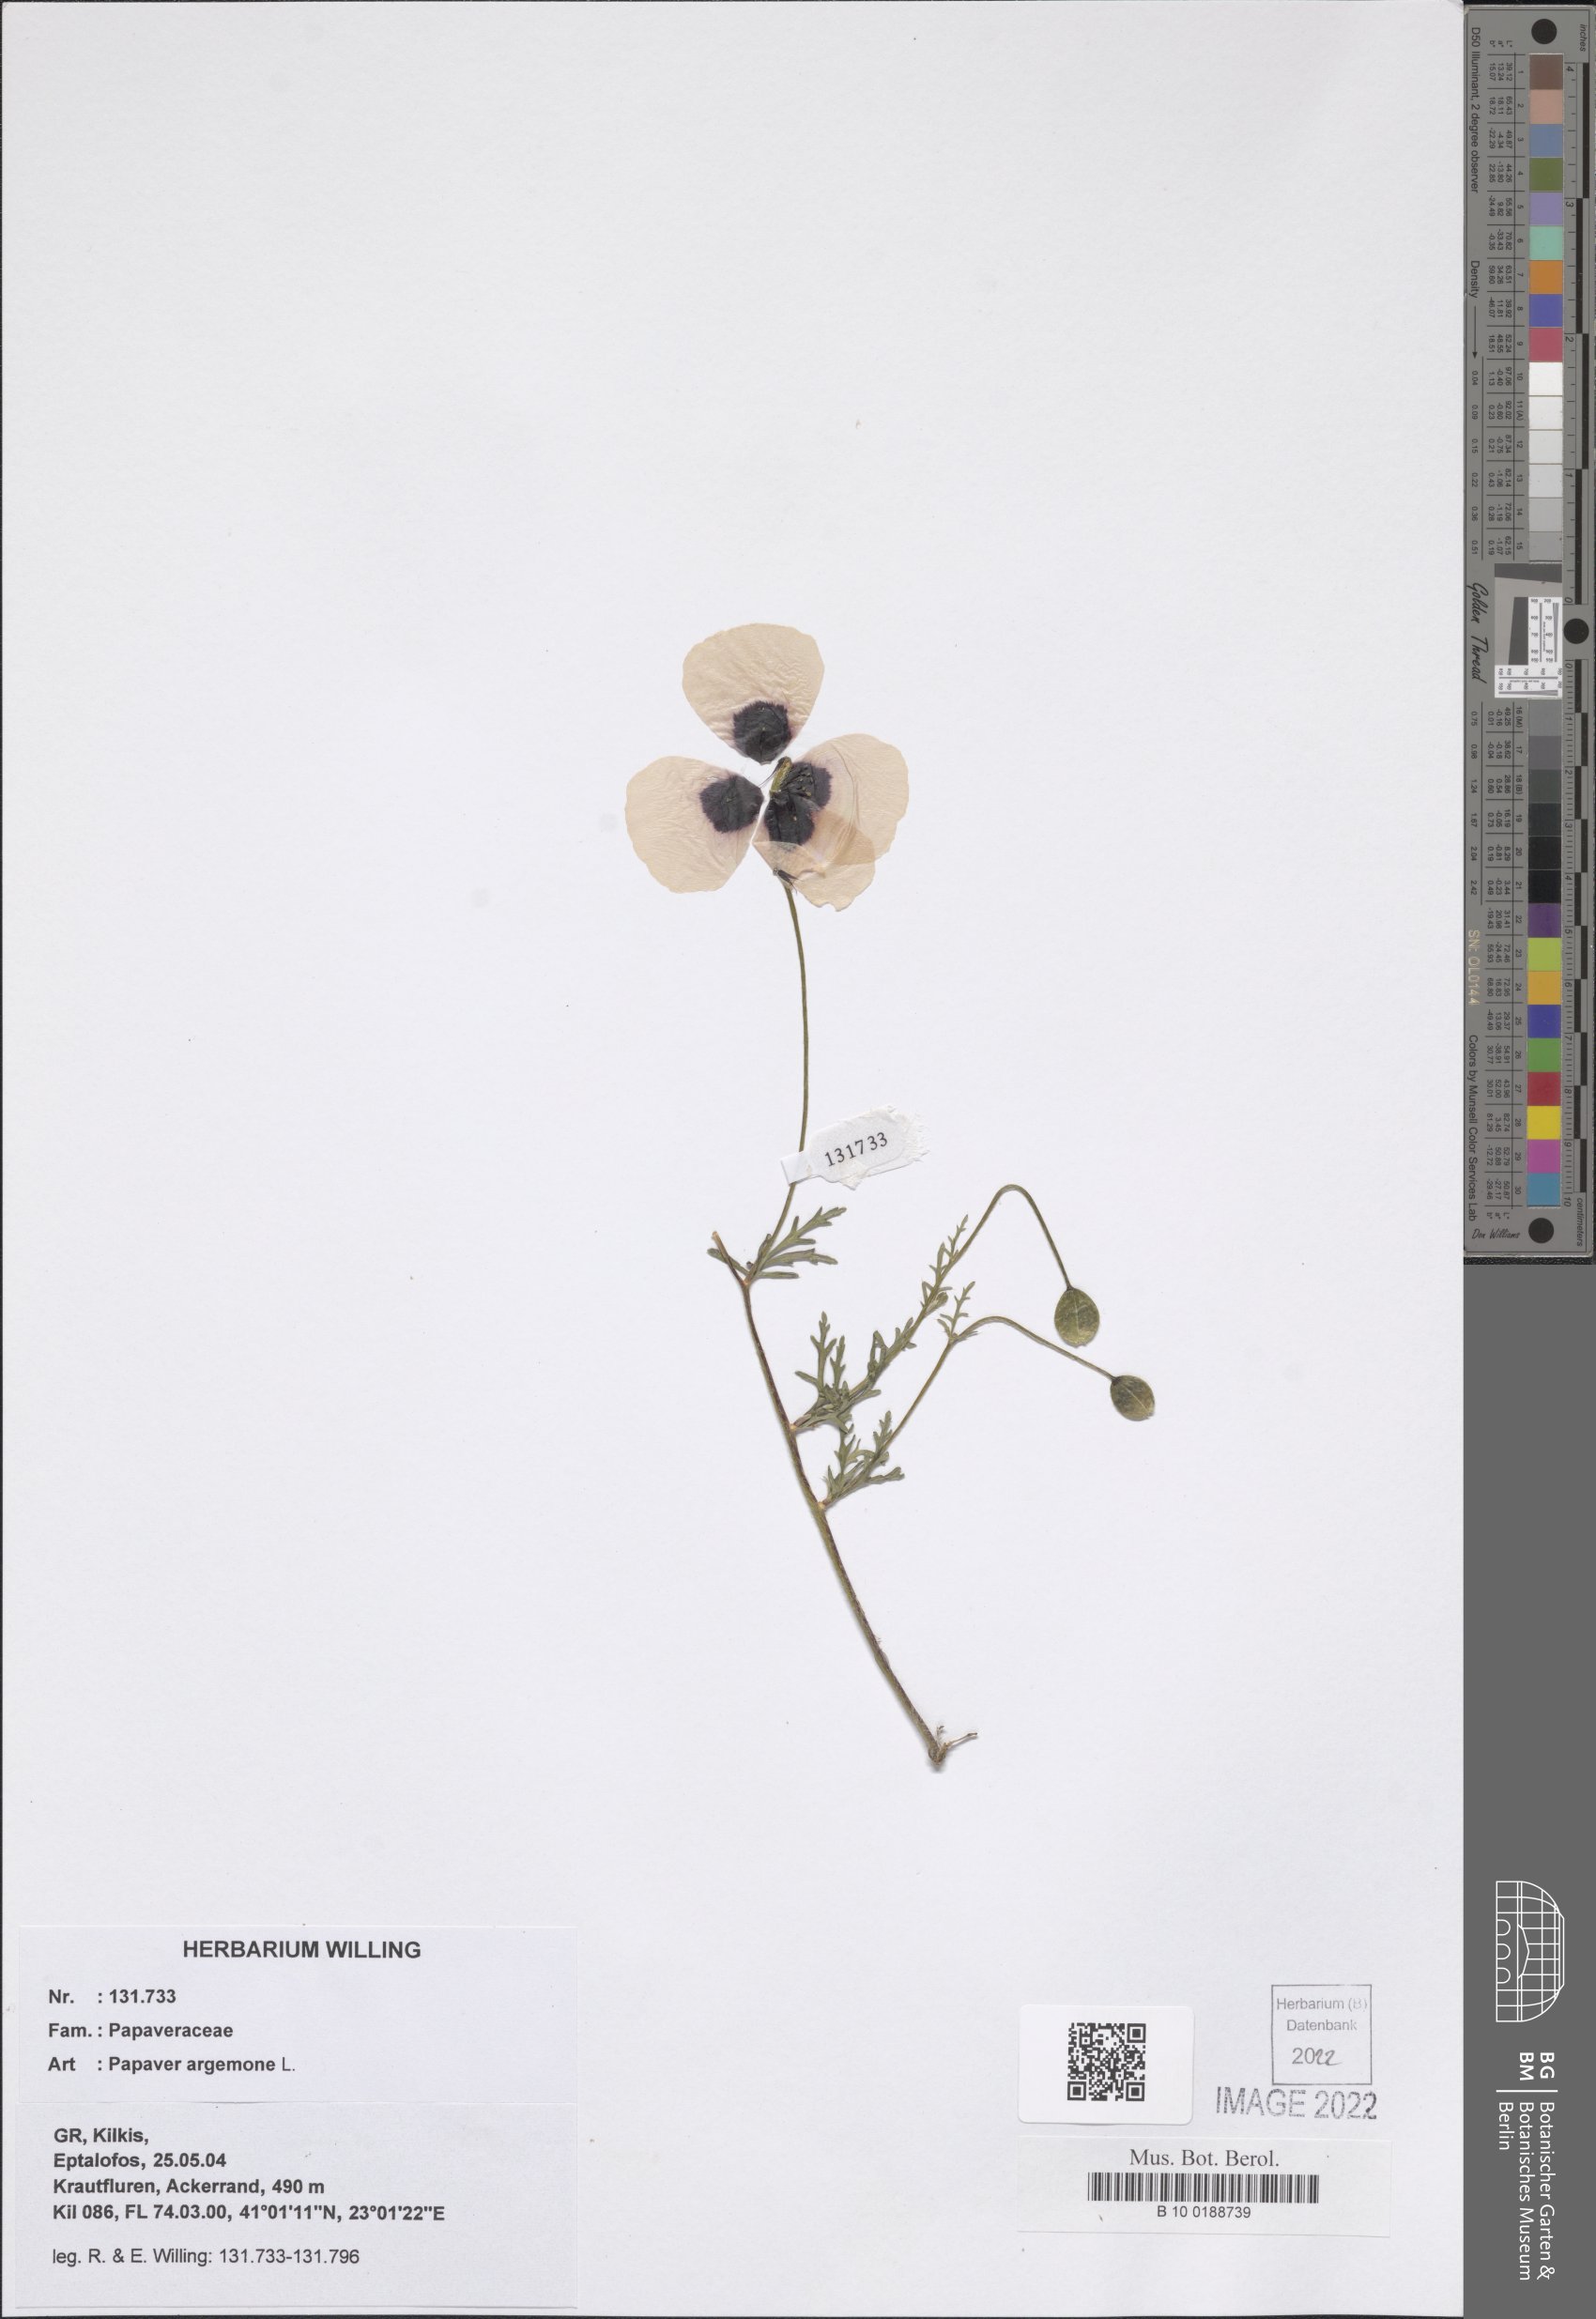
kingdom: Plantae
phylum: Tracheophyta
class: Magnoliopsida
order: Ranunculales
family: Papaveraceae
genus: Roemeria
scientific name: Roemeria argemone
